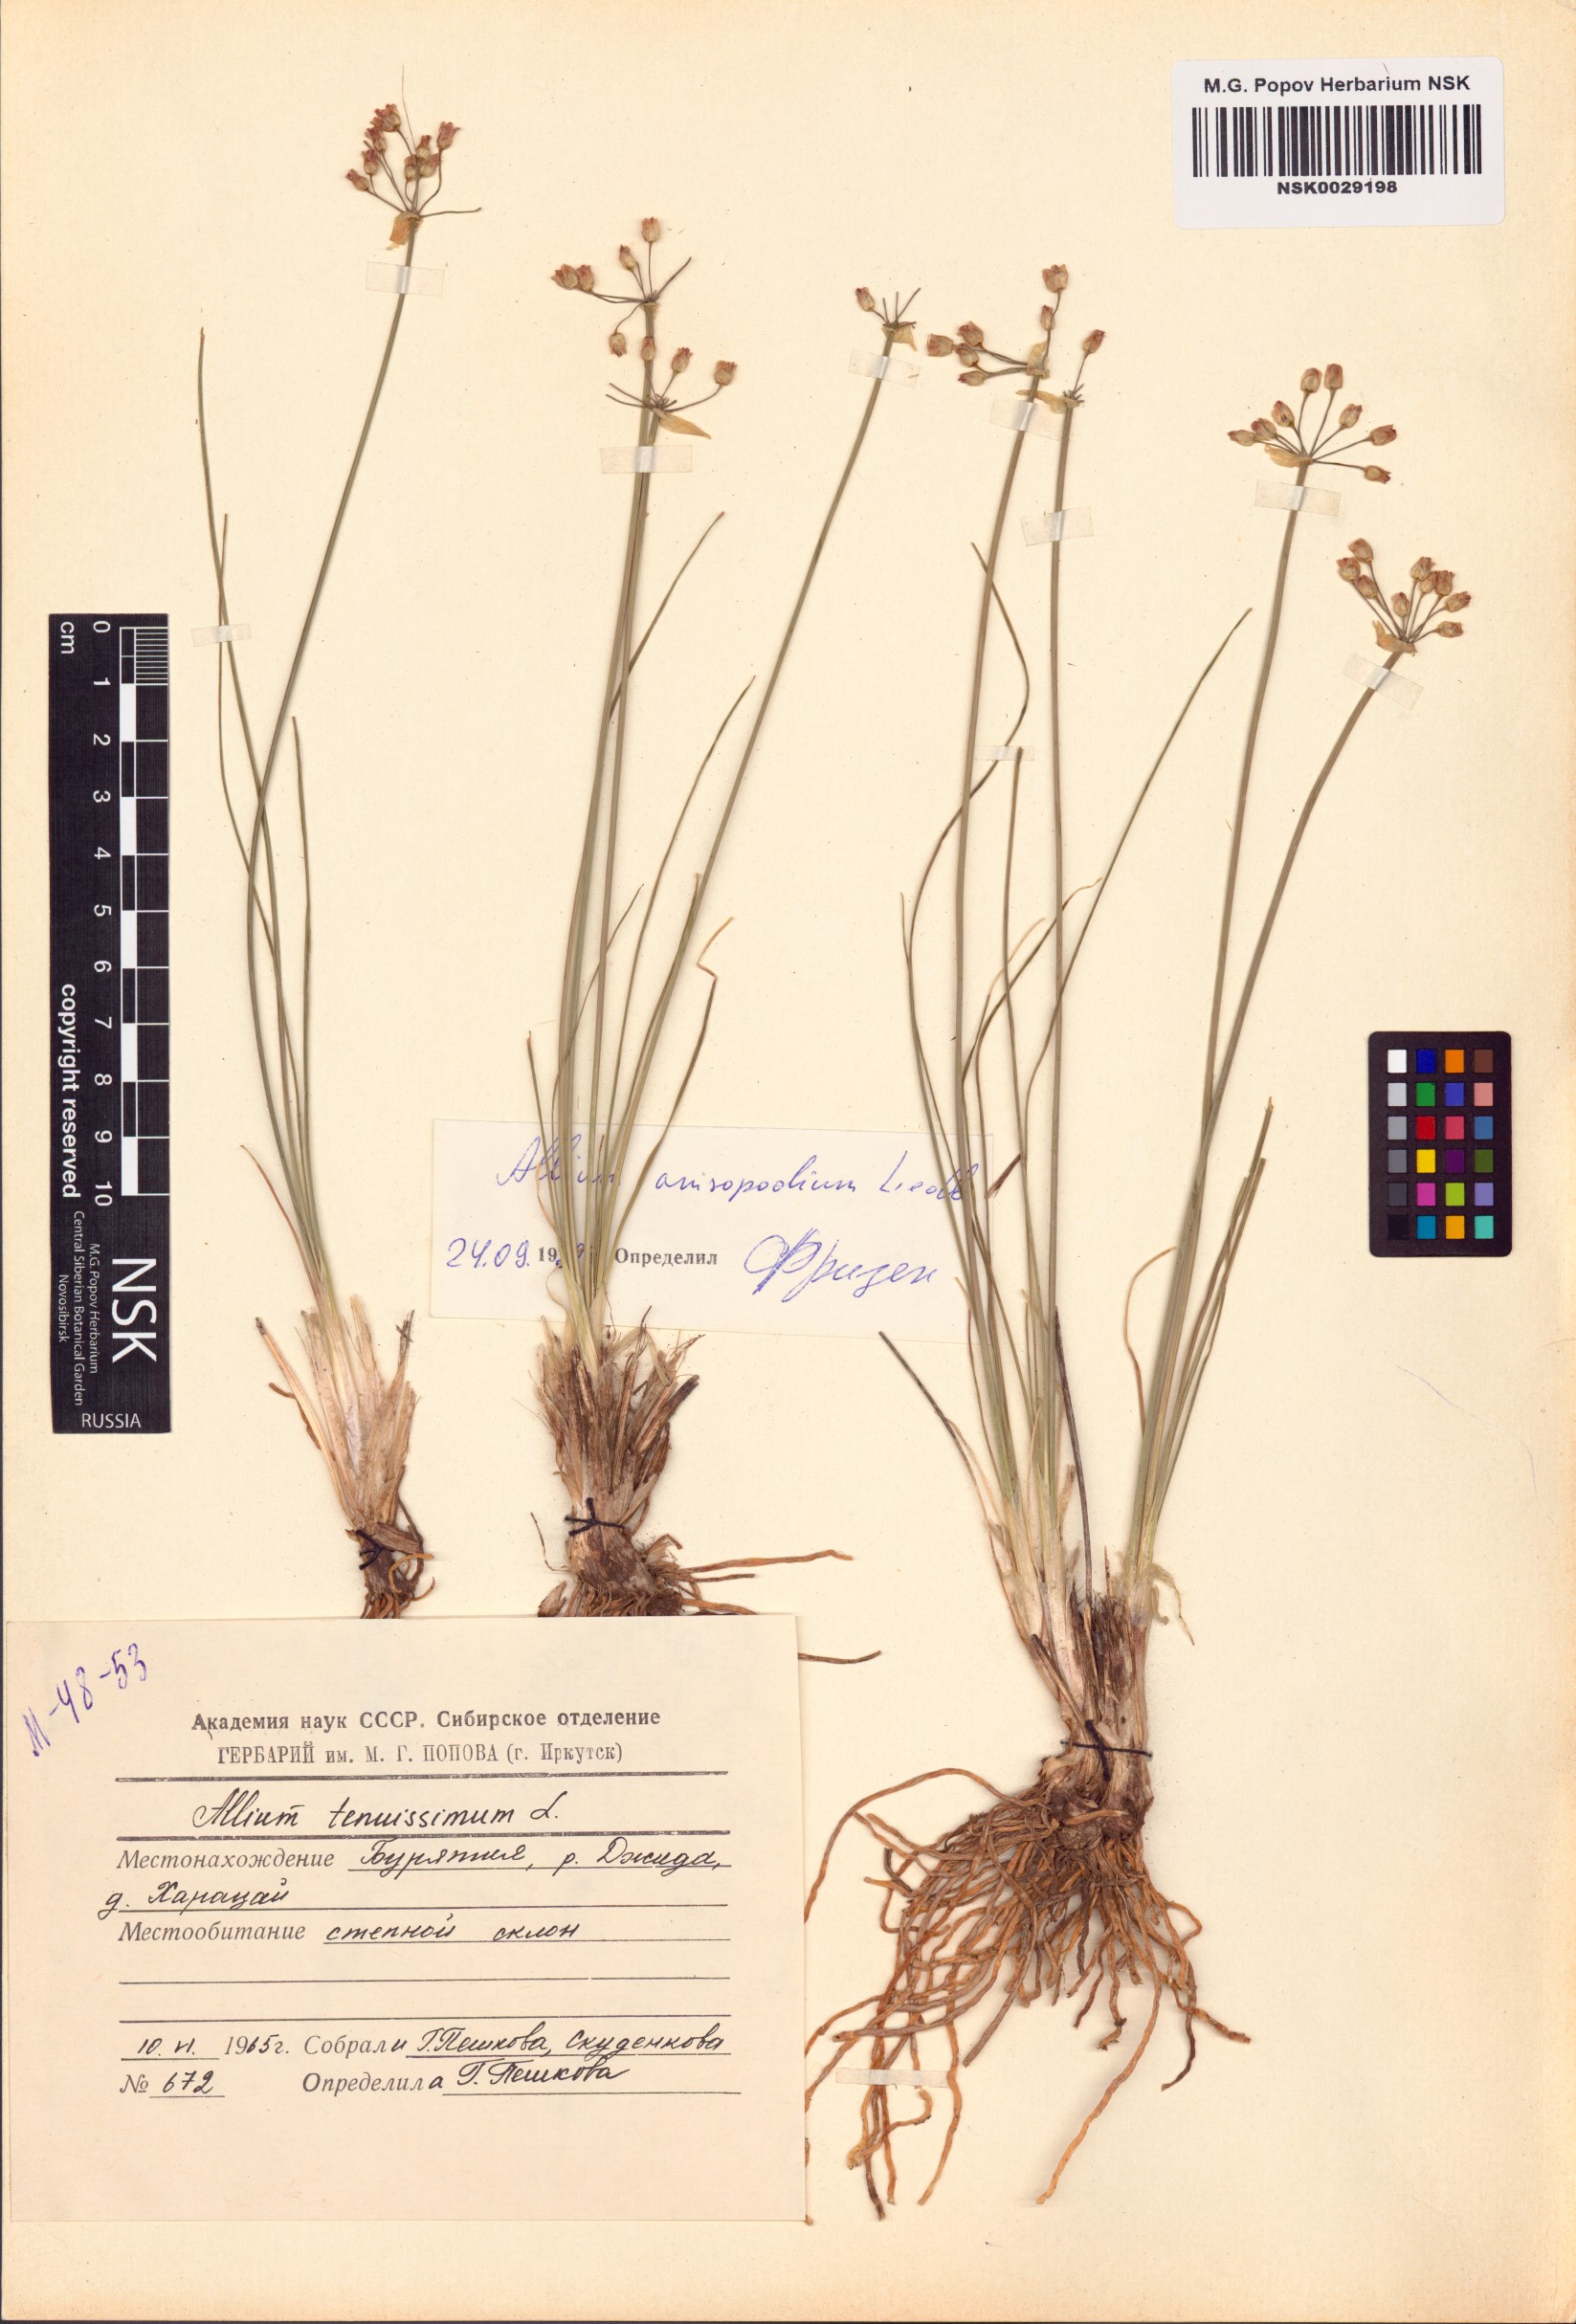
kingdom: Plantae
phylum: Tracheophyta
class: Liliopsida
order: Asparagales
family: Amaryllidaceae
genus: Allium
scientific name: Allium anisopodium
